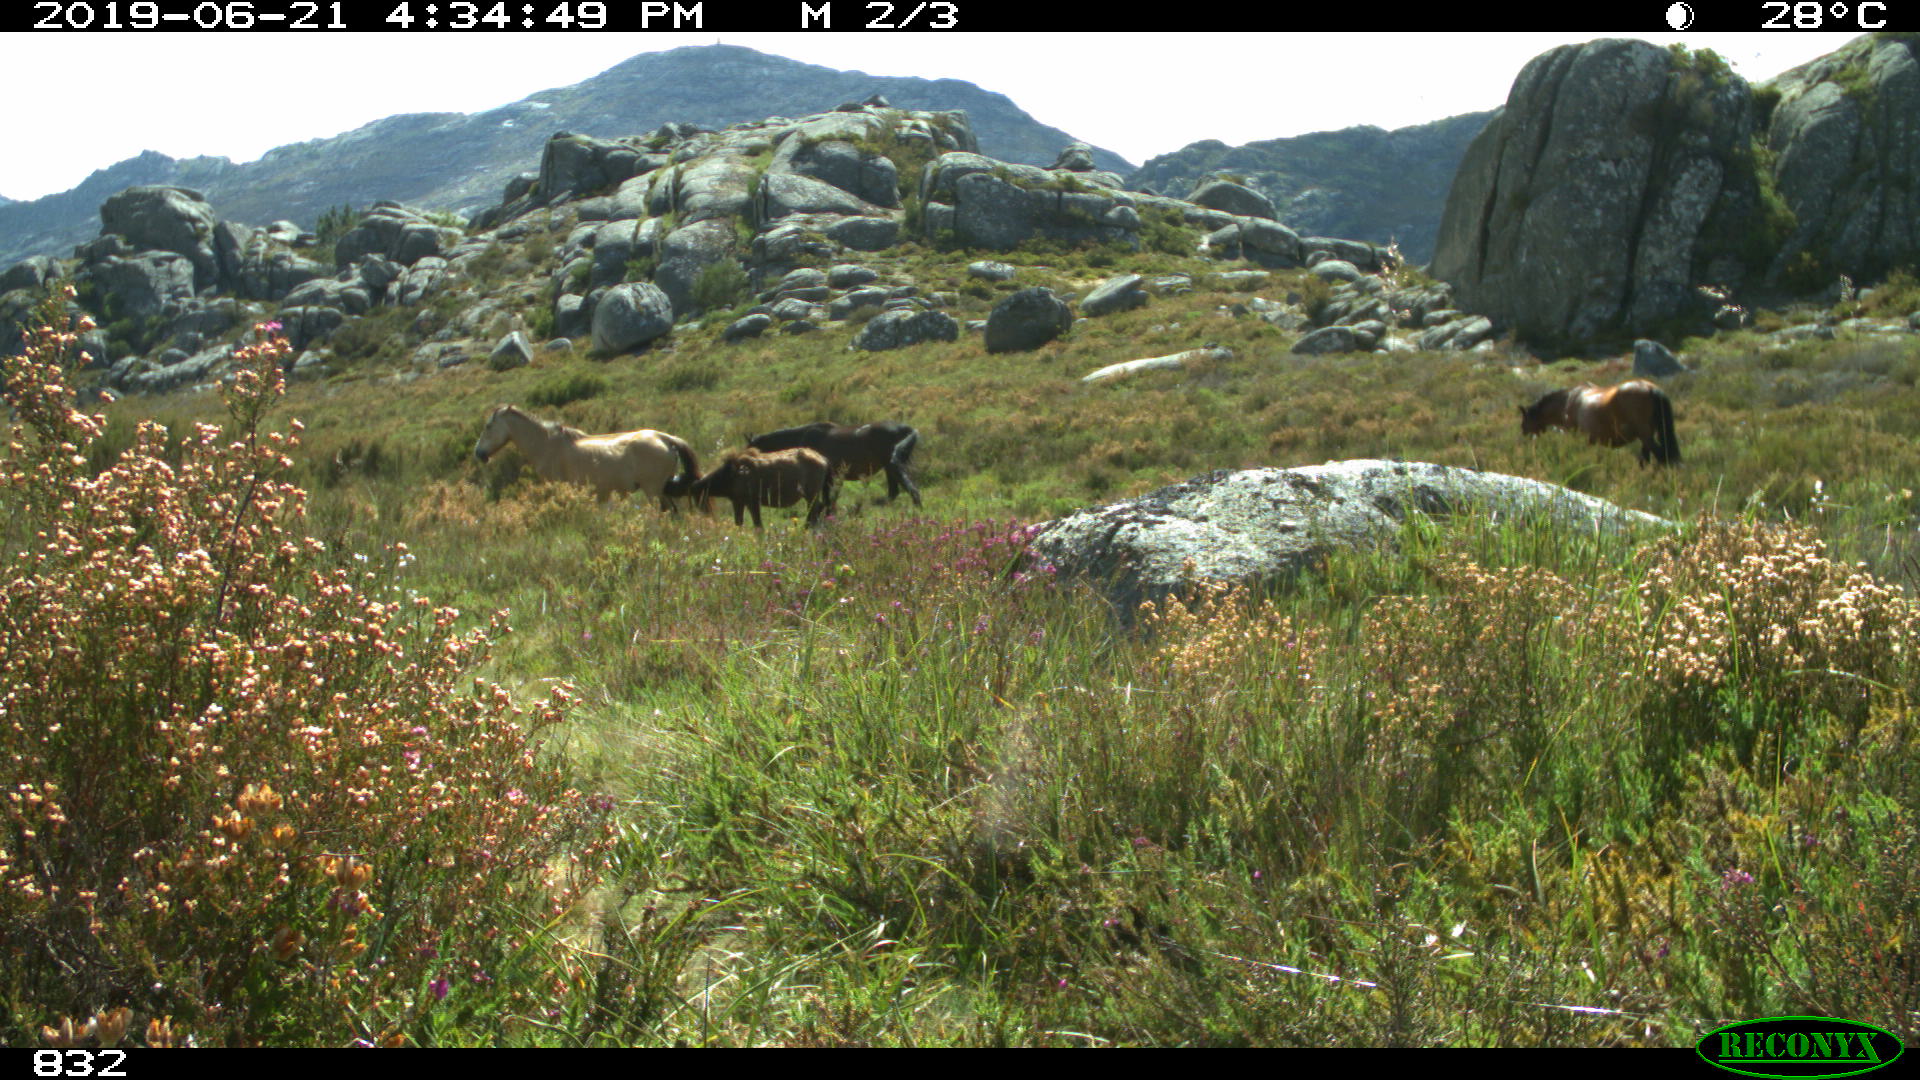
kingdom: Animalia
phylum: Chordata
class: Mammalia
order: Perissodactyla
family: Equidae
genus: Equus
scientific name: Equus caballus
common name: Horse
